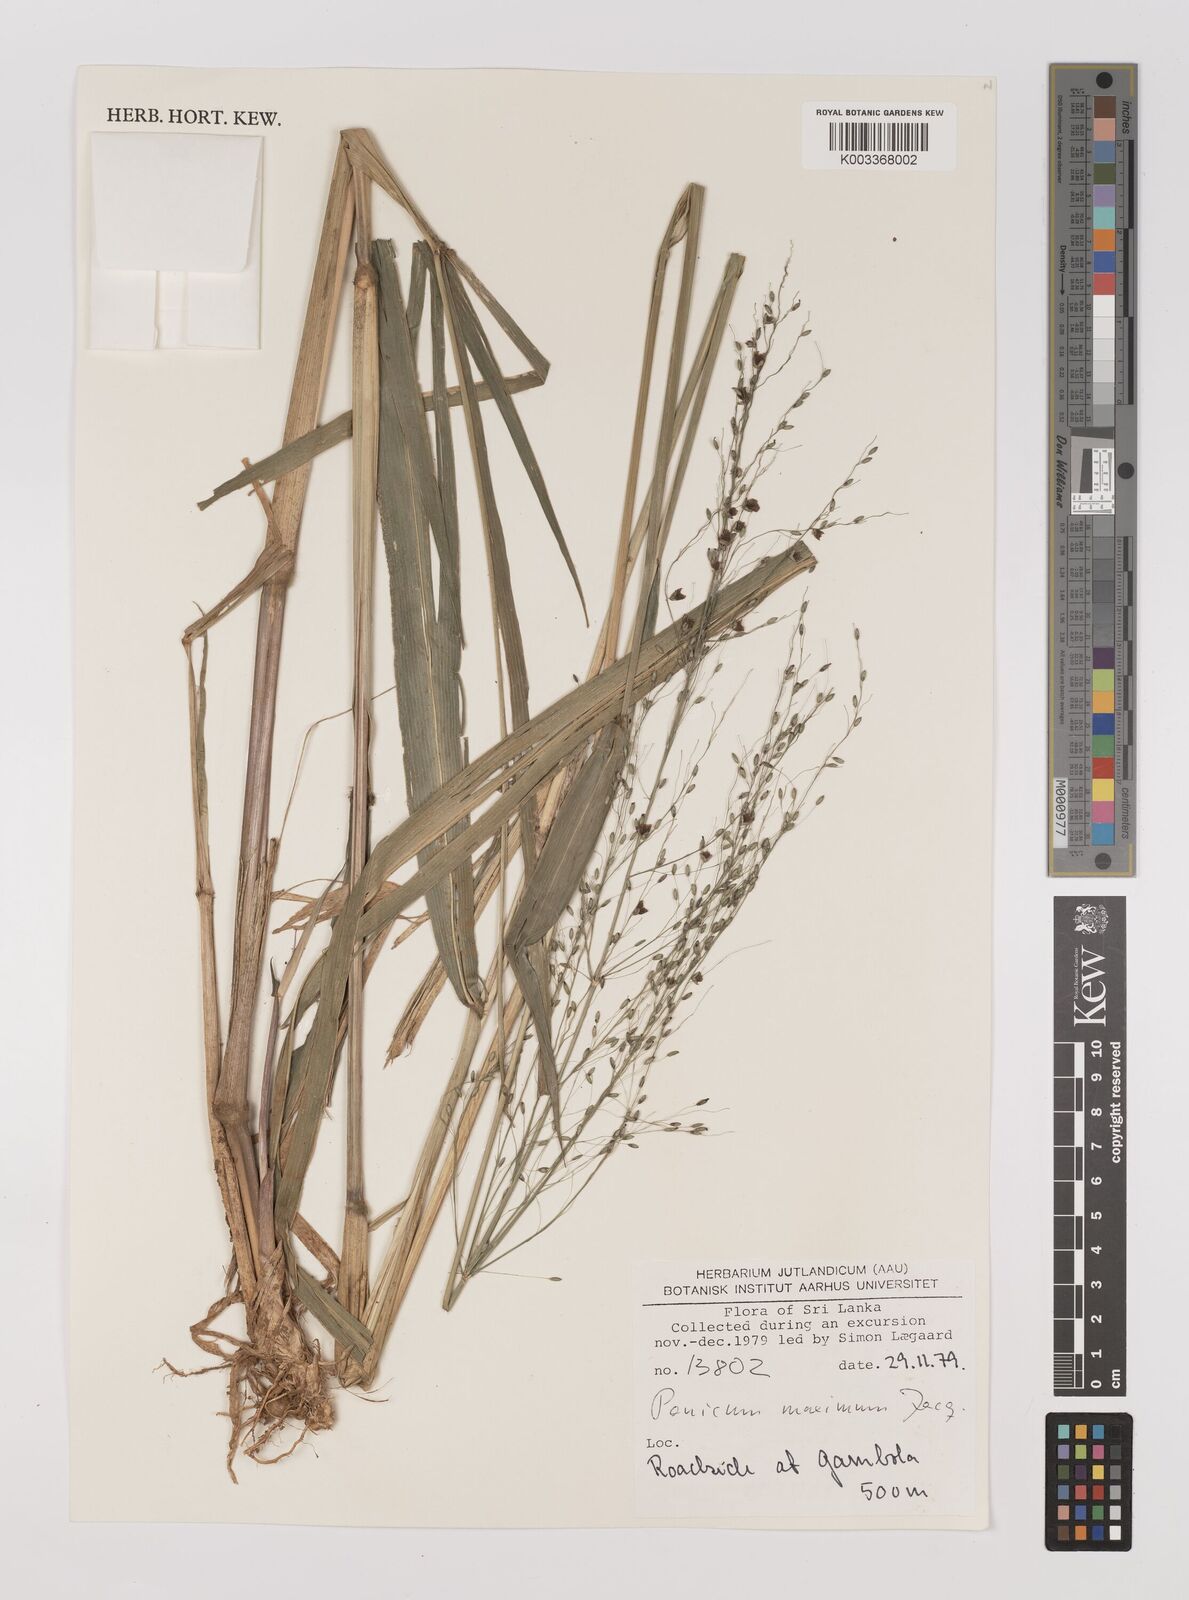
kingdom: Plantae
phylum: Tracheophyta
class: Liliopsida
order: Poales
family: Poaceae
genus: Megathyrsus
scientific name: Megathyrsus maximus
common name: Guineagrass
